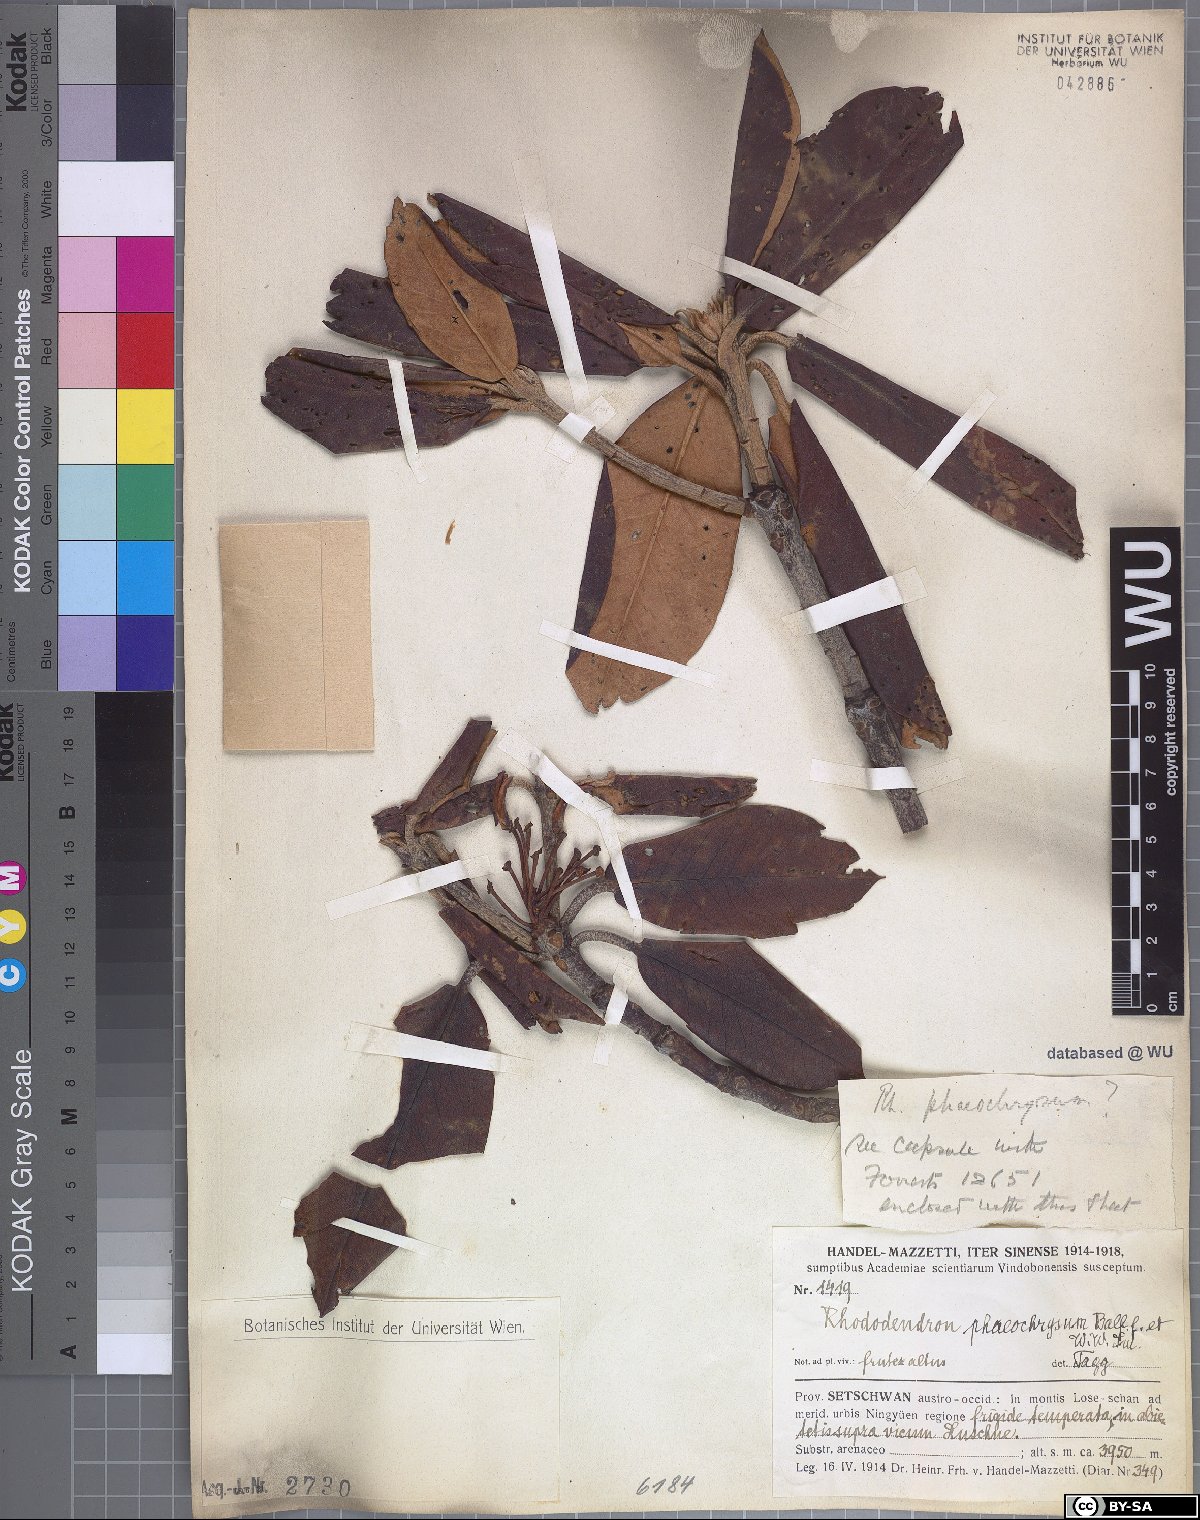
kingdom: Plantae
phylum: Tracheophyta
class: Magnoliopsida
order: Ericales
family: Ericaceae
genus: Rhododendron
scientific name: Rhododendron phaeochrysum
